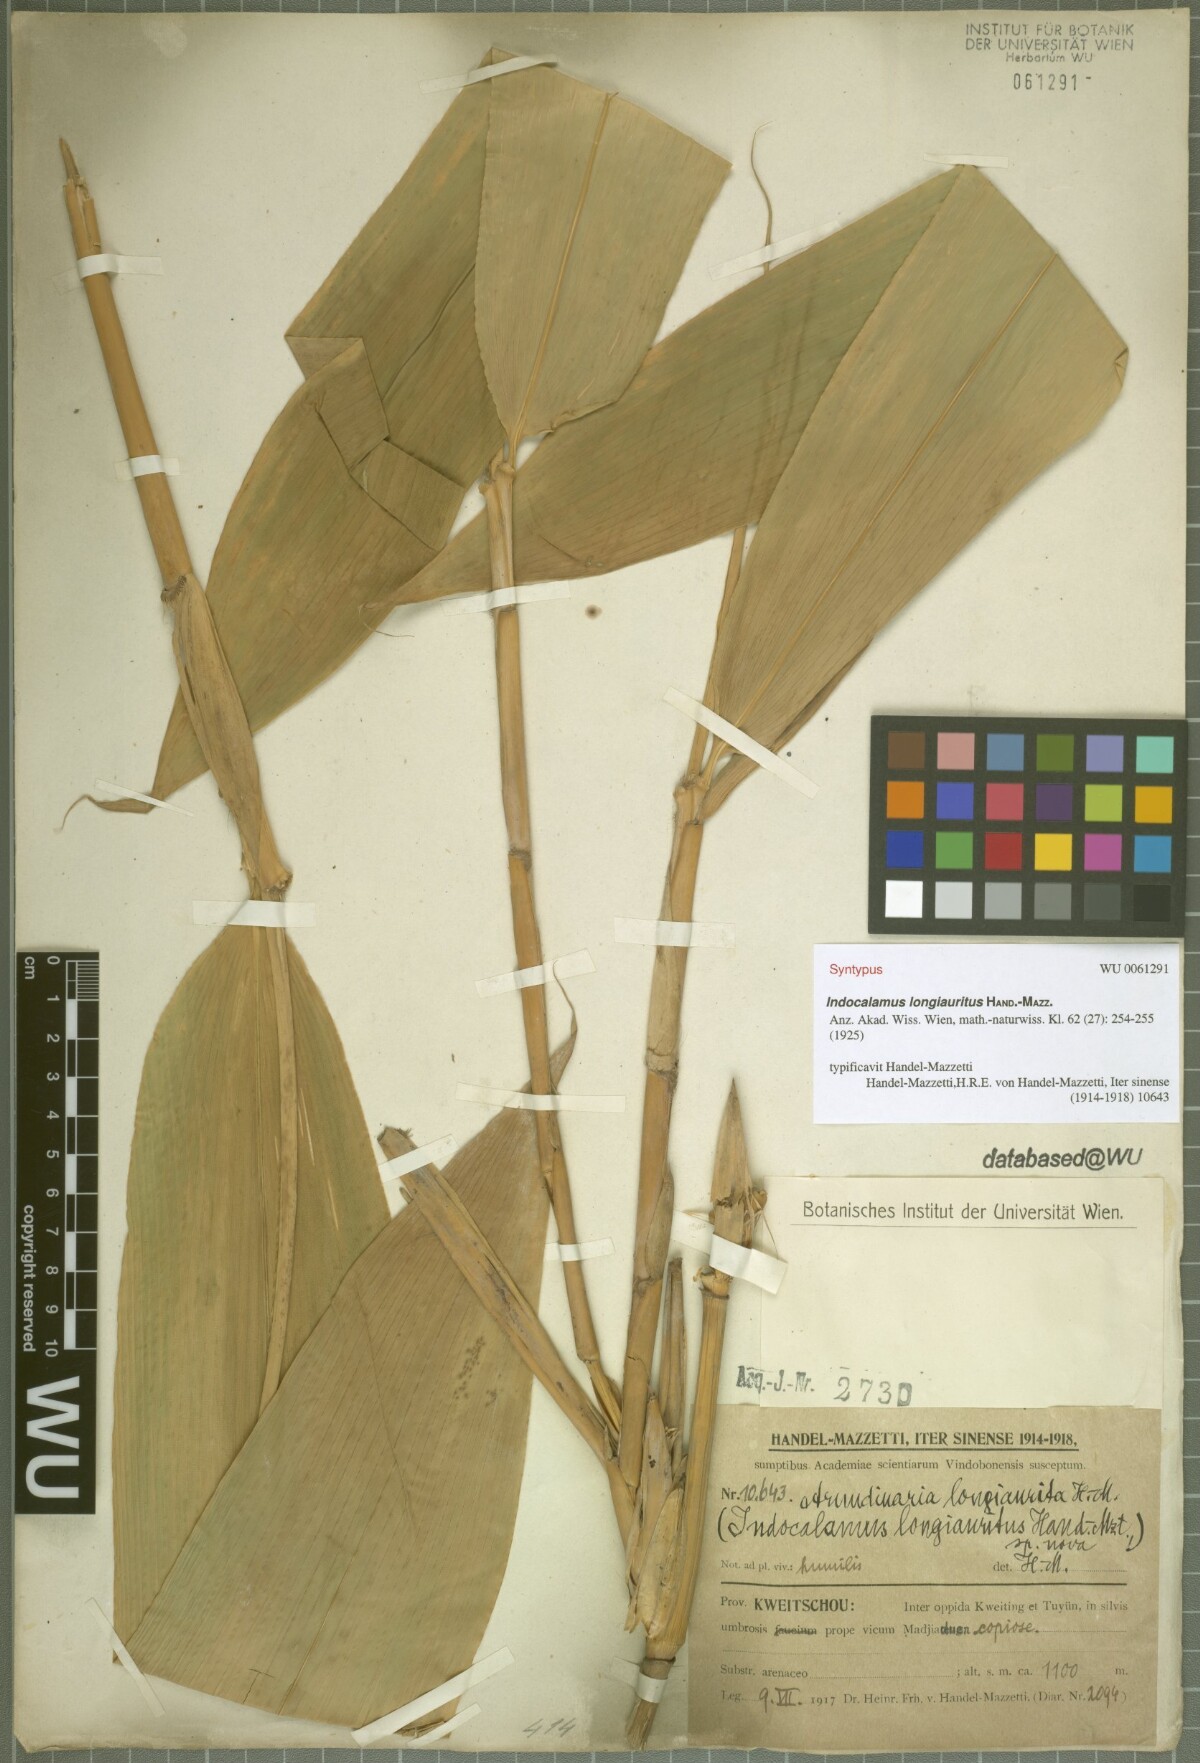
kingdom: Plantae
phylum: Tracheophyta
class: Liliopsida
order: Poales
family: Poaceae
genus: Indocalamus
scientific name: Indocalamus longiauritus
